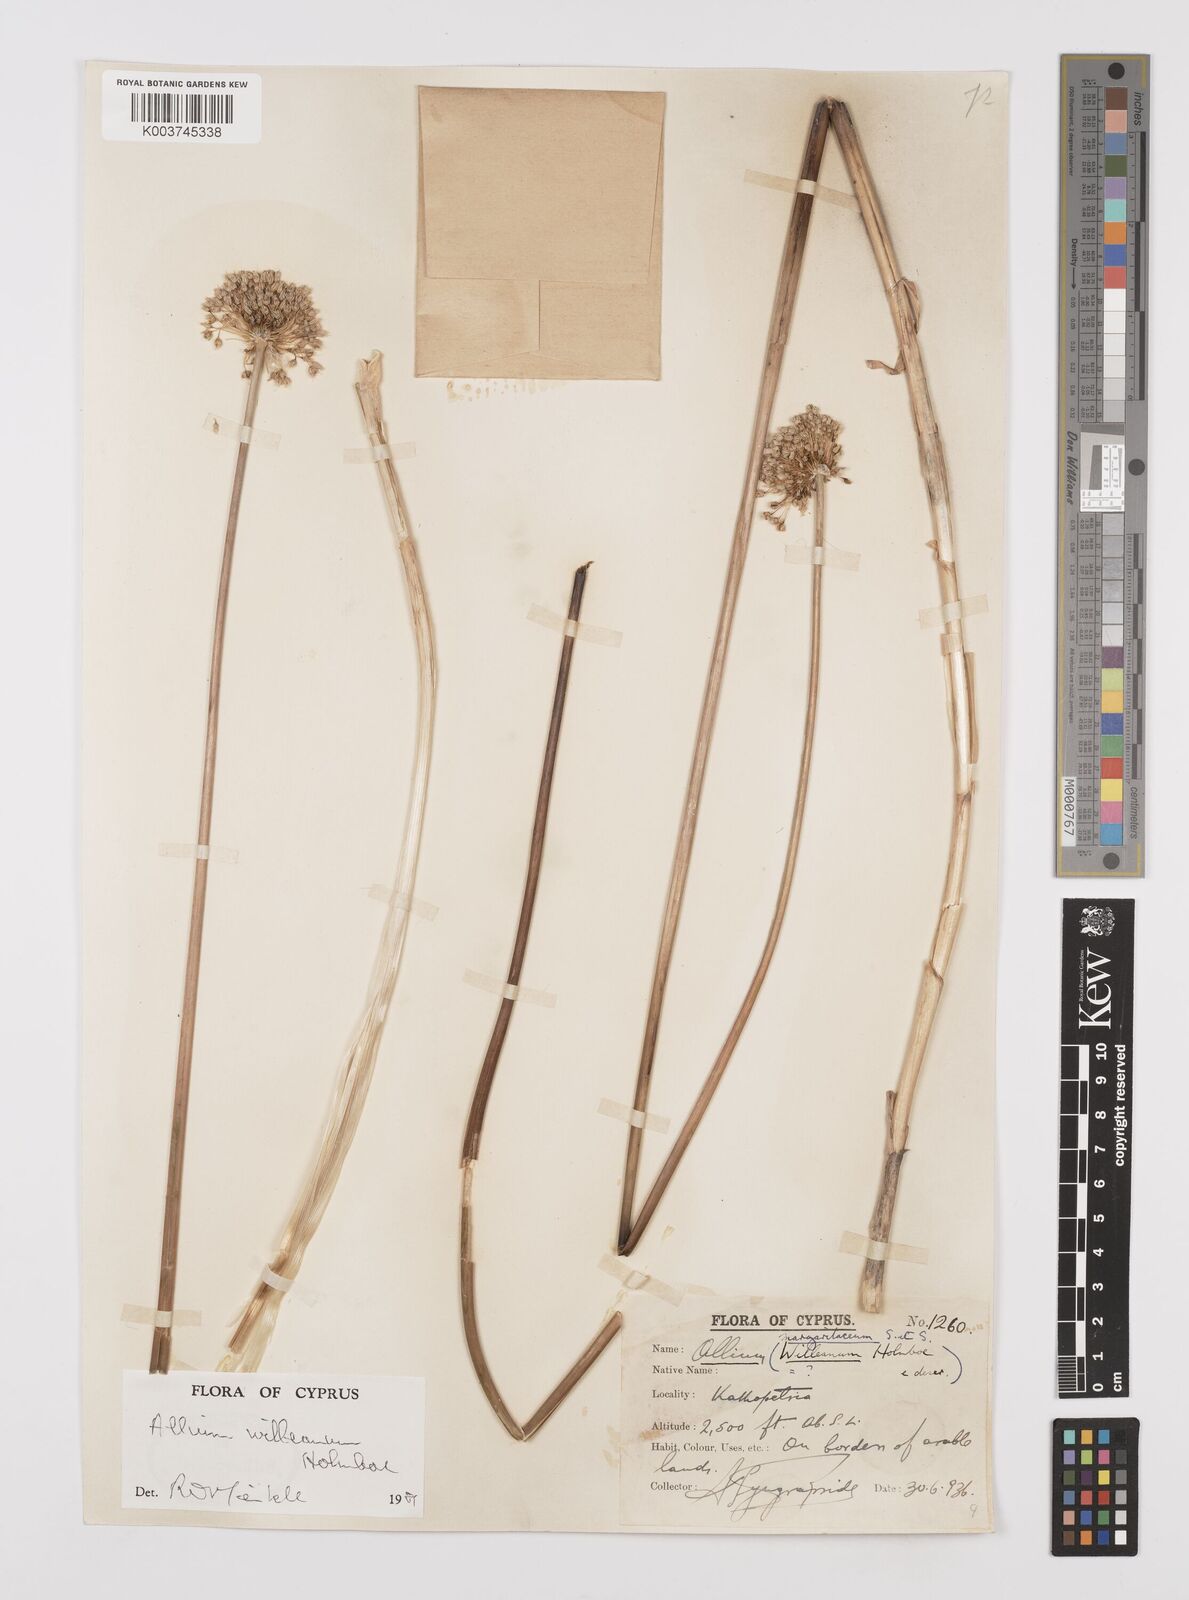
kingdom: Plantae
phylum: Tracheophyta
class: Liliopsida
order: Asparagales
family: Amaryllidaceae
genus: Allium
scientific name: Allium willeanum
